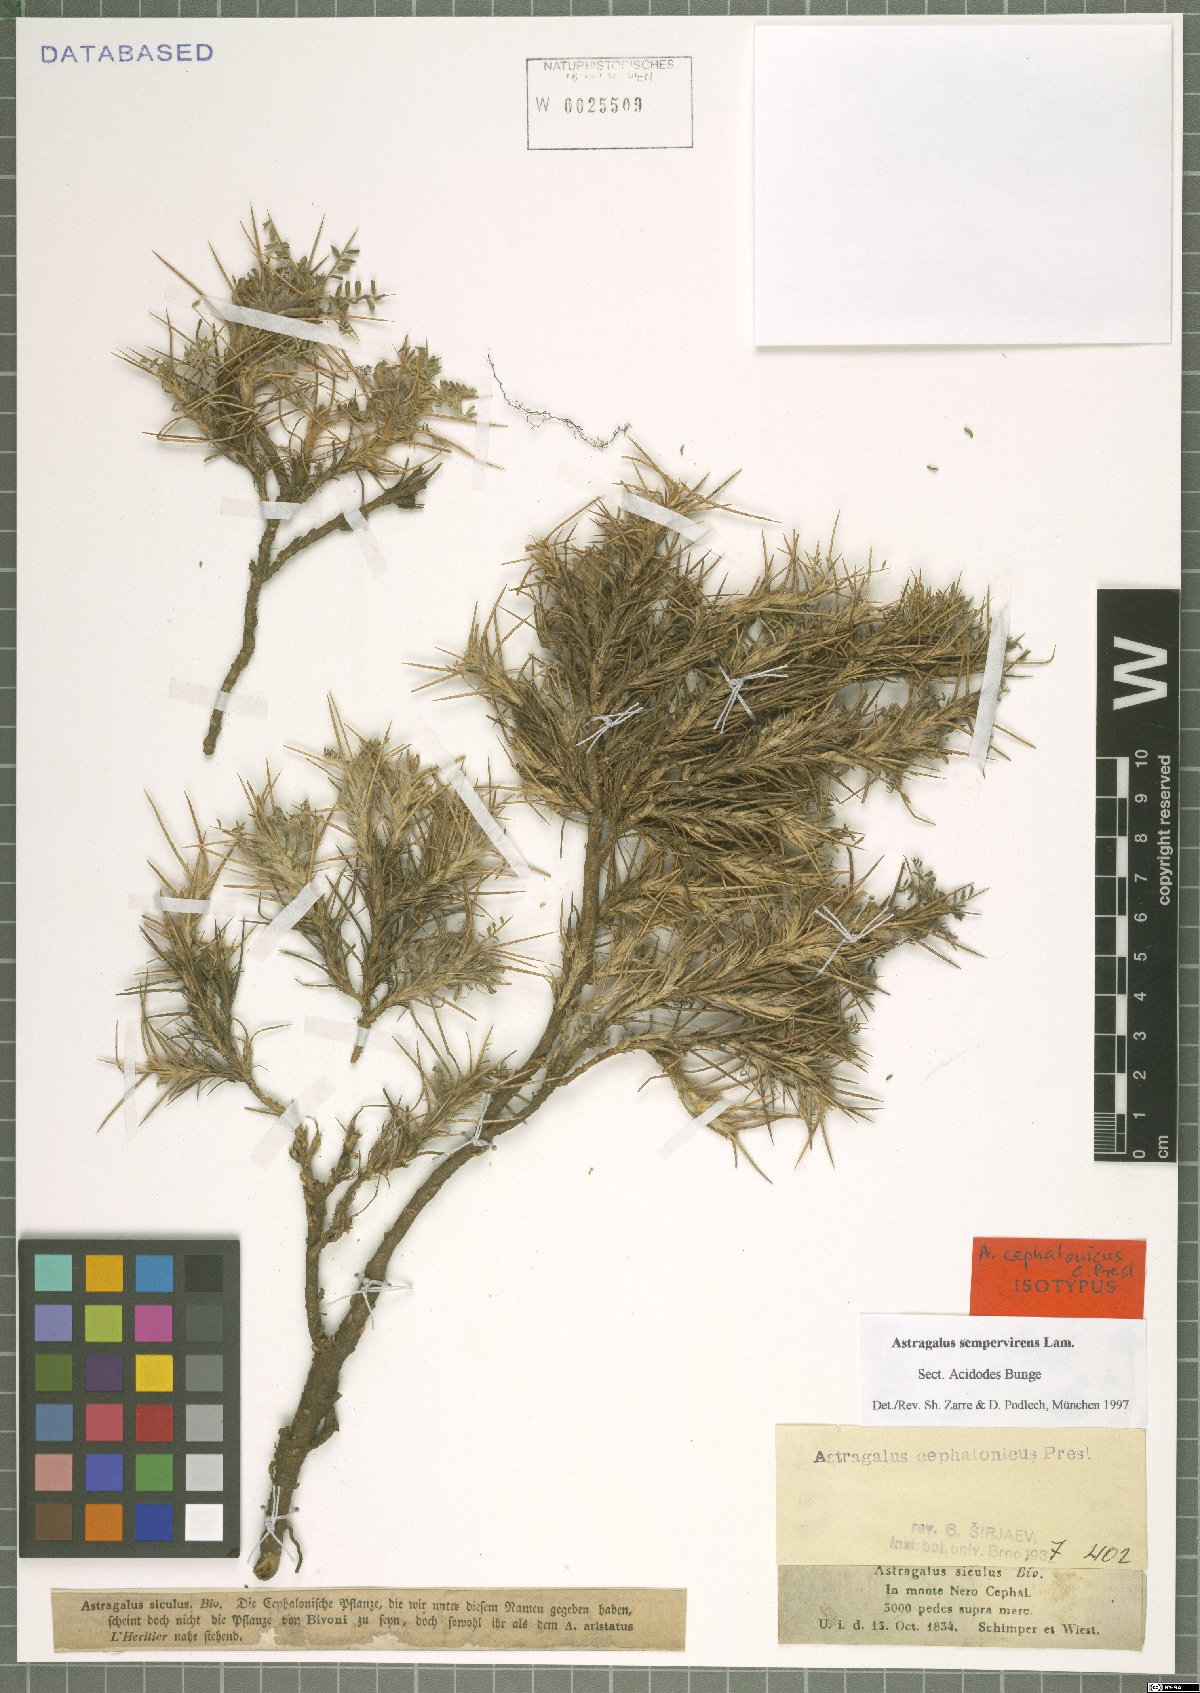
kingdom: Plantae
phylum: Tracheophyta
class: Magnoliopsida
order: Fabales
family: Fabaceae
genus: Astragalus
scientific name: Astragalus sempervirens
